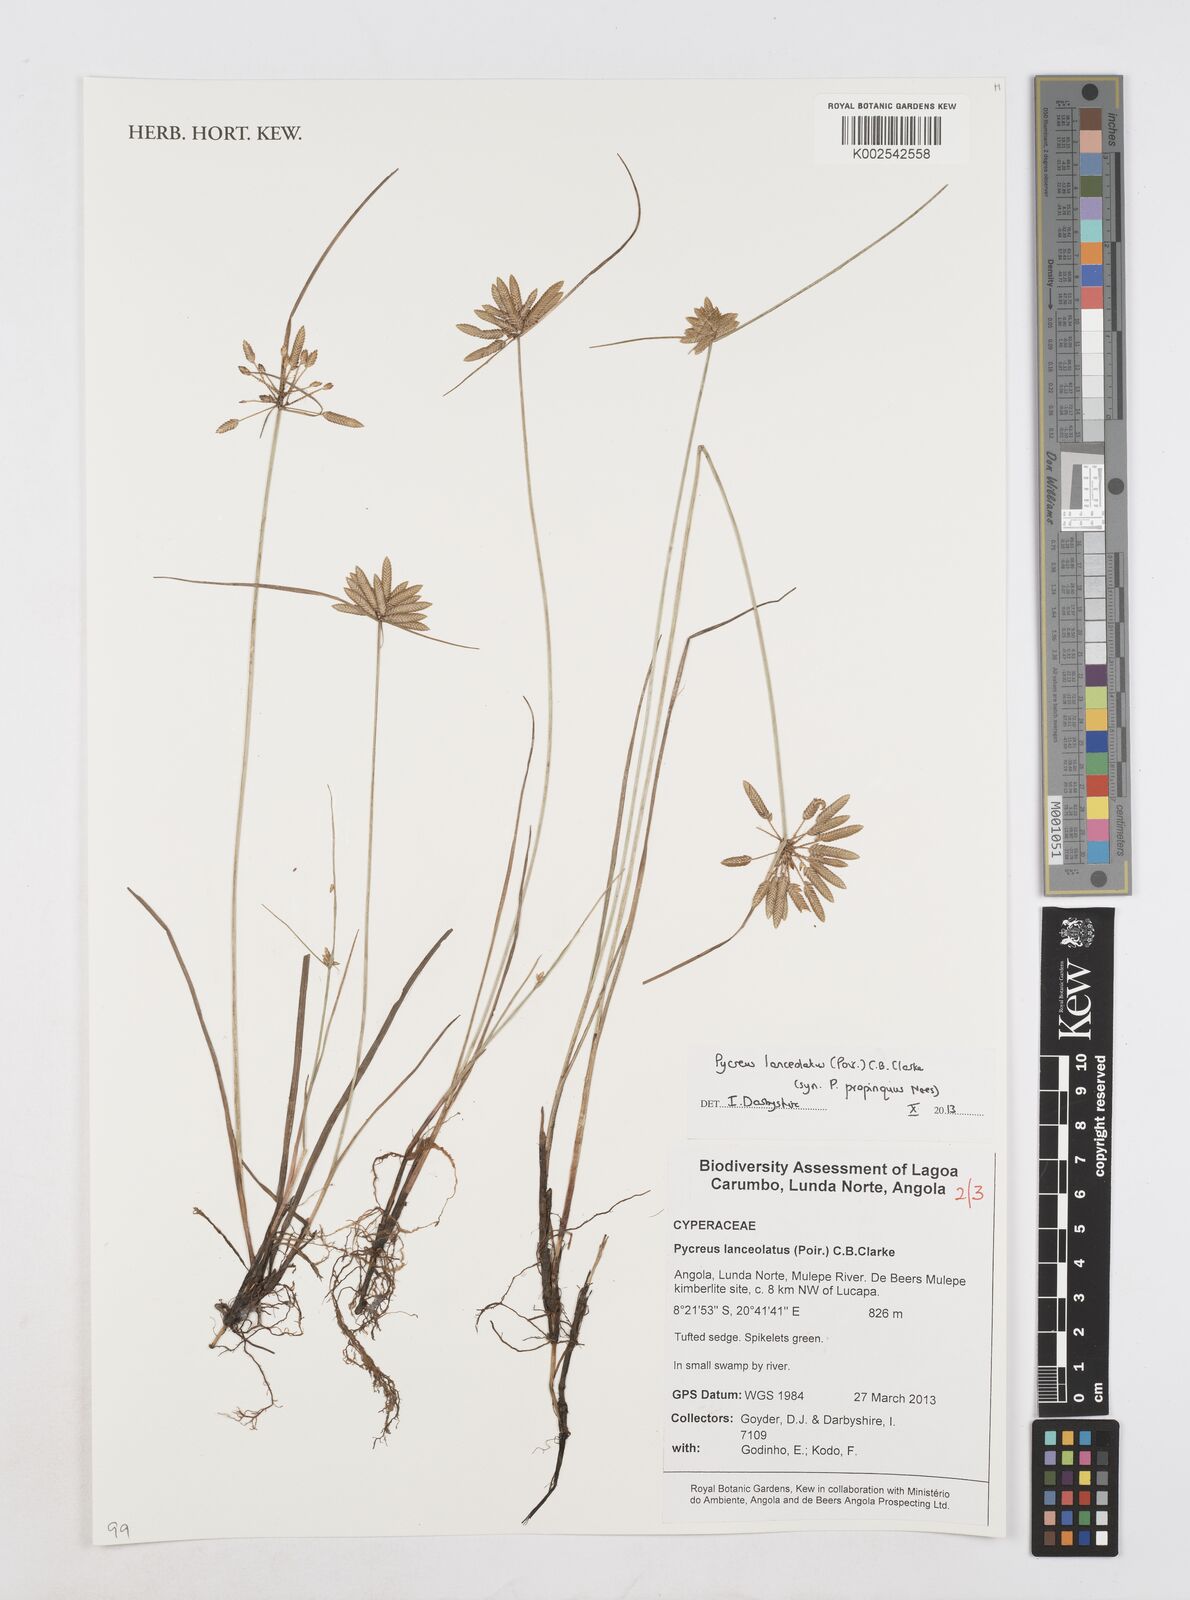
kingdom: Plantae
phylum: Tracheophyta
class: Liliopsida
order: Poales
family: Cyperaceae
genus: Cyperus
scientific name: Cyperus
